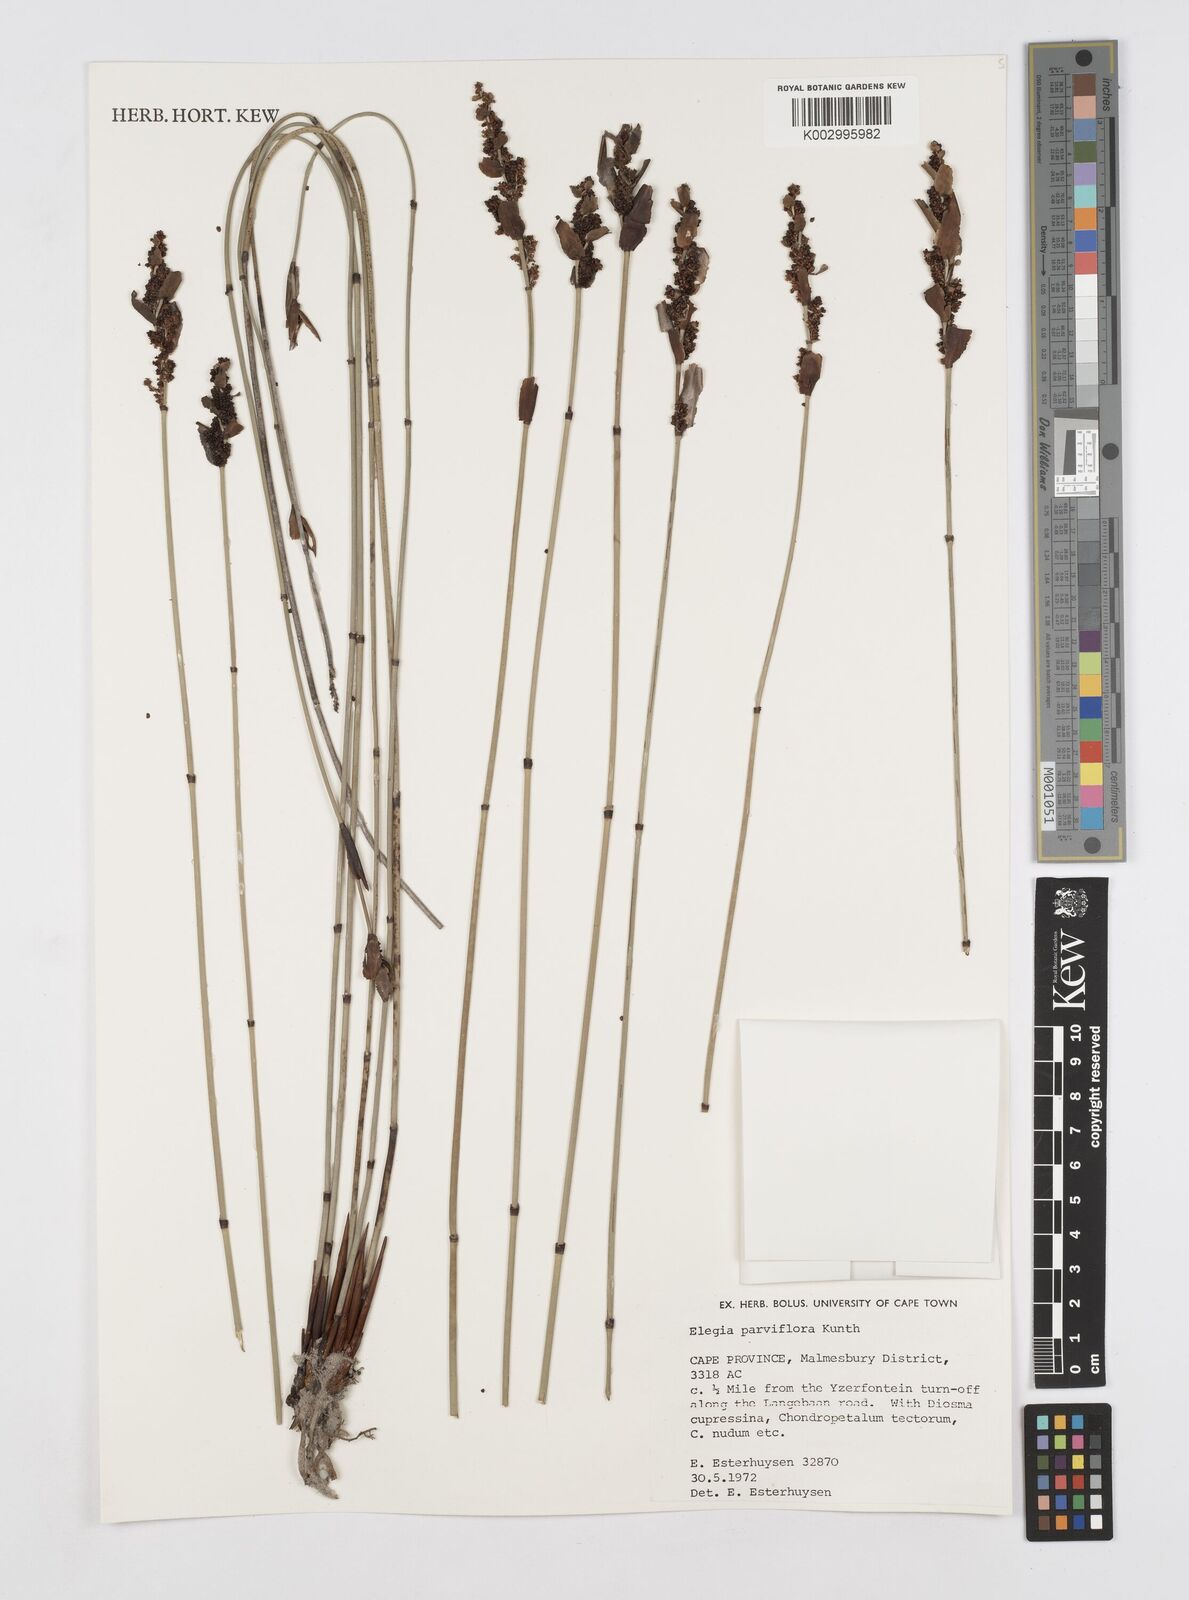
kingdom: Plantae
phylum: Tracheophyta
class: Liliopsida
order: Poales
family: Restionaceae
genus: Cannomois
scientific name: Cannomois parviflora
